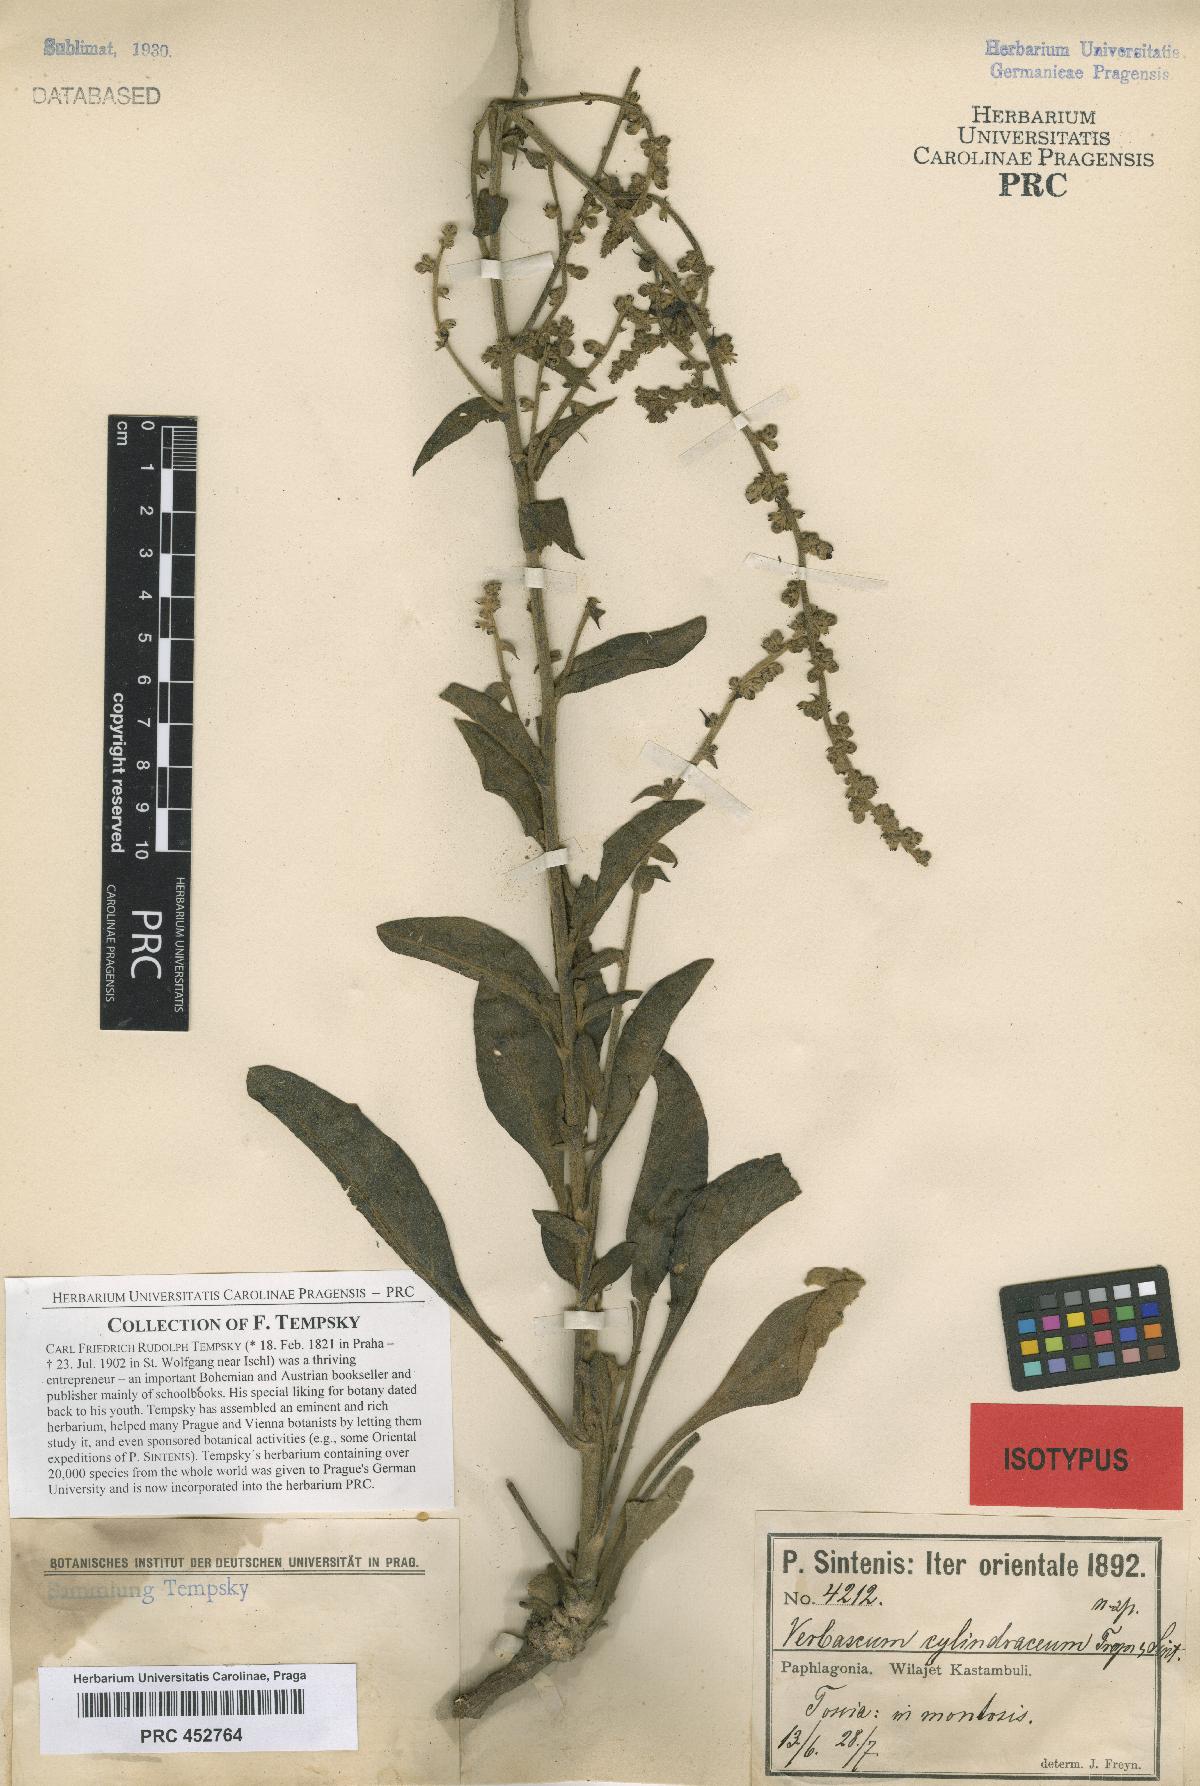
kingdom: Plantae
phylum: Tracheophyta
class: Magnoliopsida
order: Lamiales
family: Scrophulariaceae
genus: Verbascum
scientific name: Verbascum cheiranthifollum
